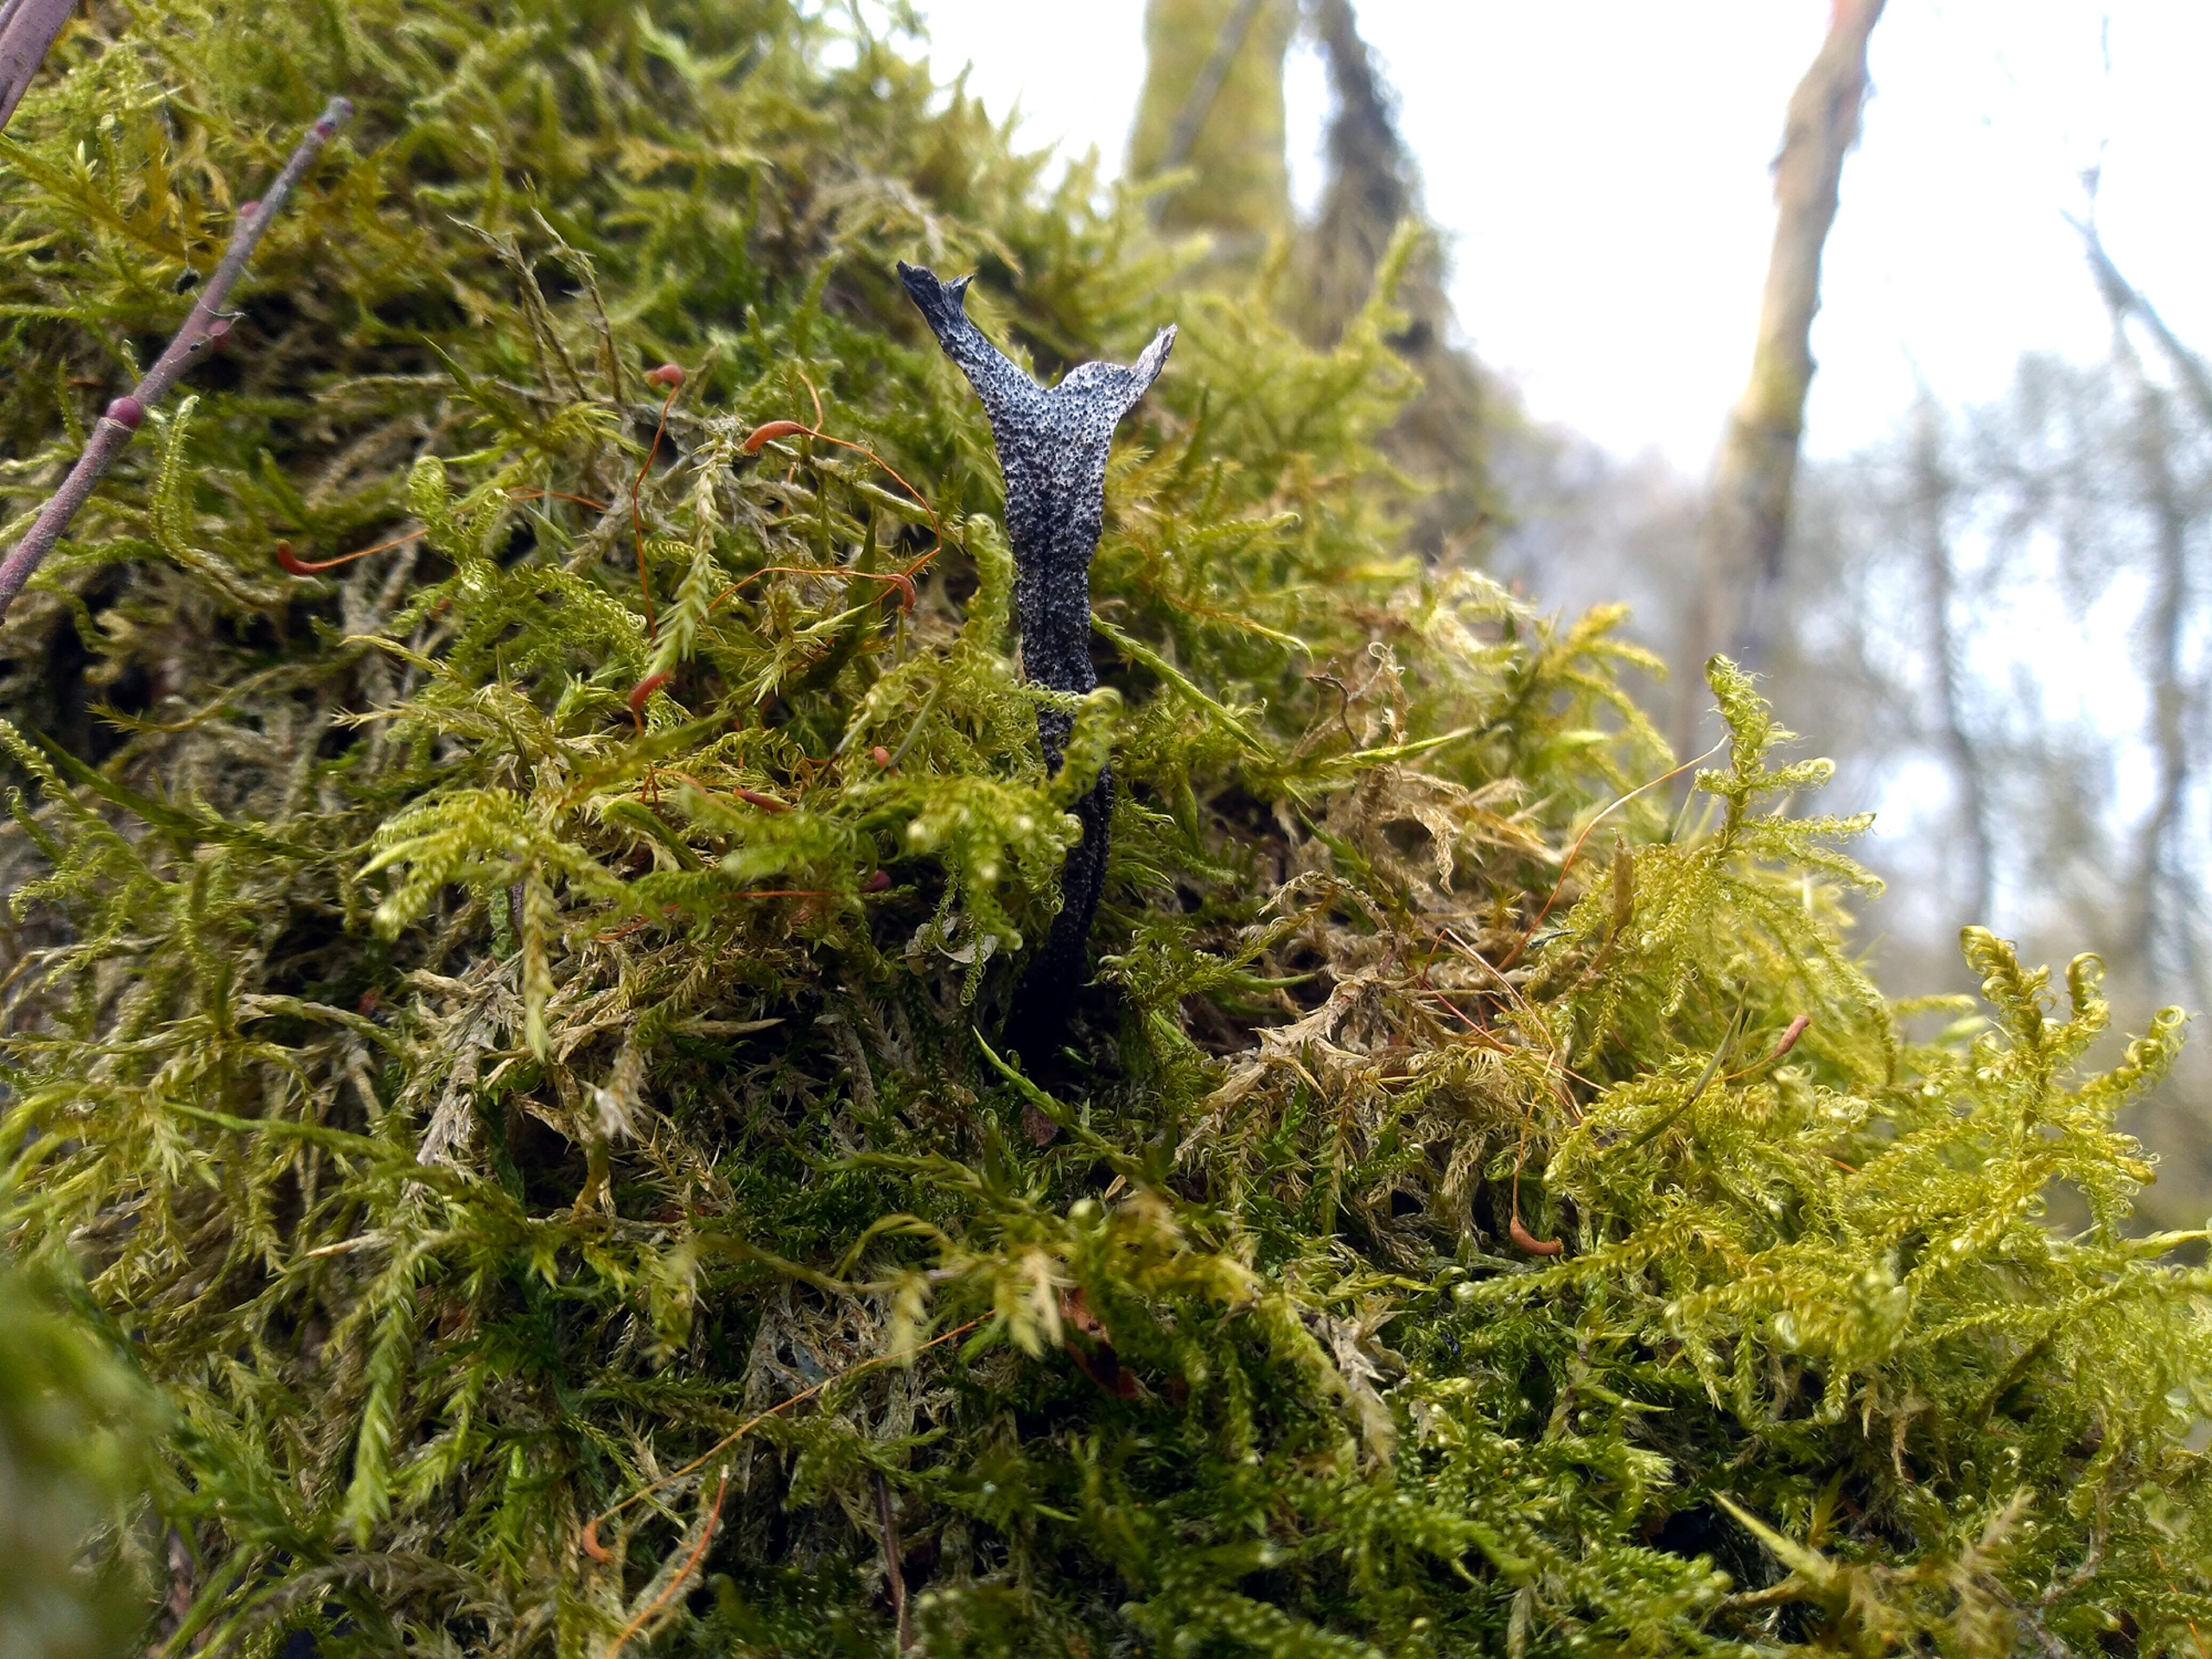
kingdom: Plantae
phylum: Bryophyta
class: Bryopsida
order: Hypnales
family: Scorpidiaceae
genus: Sanionia
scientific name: Sanionia uncinata
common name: Stribet krogblad
